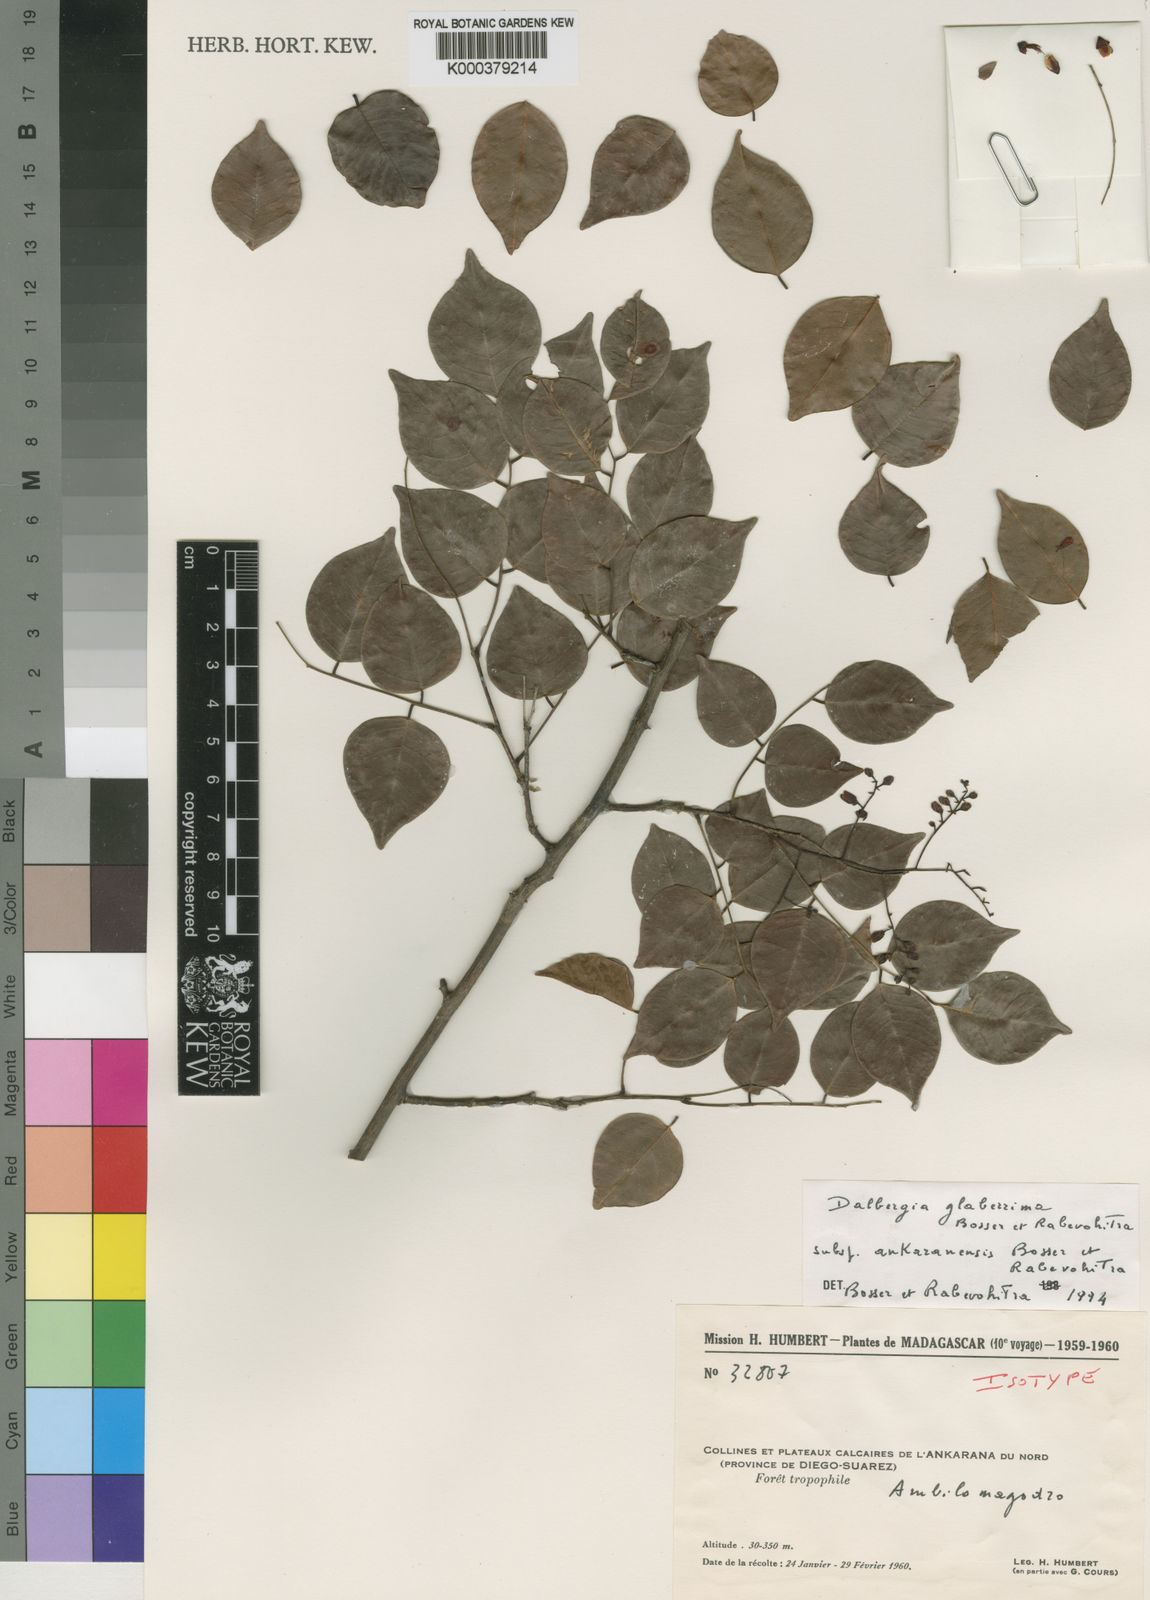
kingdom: Plantae
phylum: Tracheophyta
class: Magnoliopsida
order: Fabales
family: Fabaceae
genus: Dalbergia
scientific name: Dalbergia glaberrima
